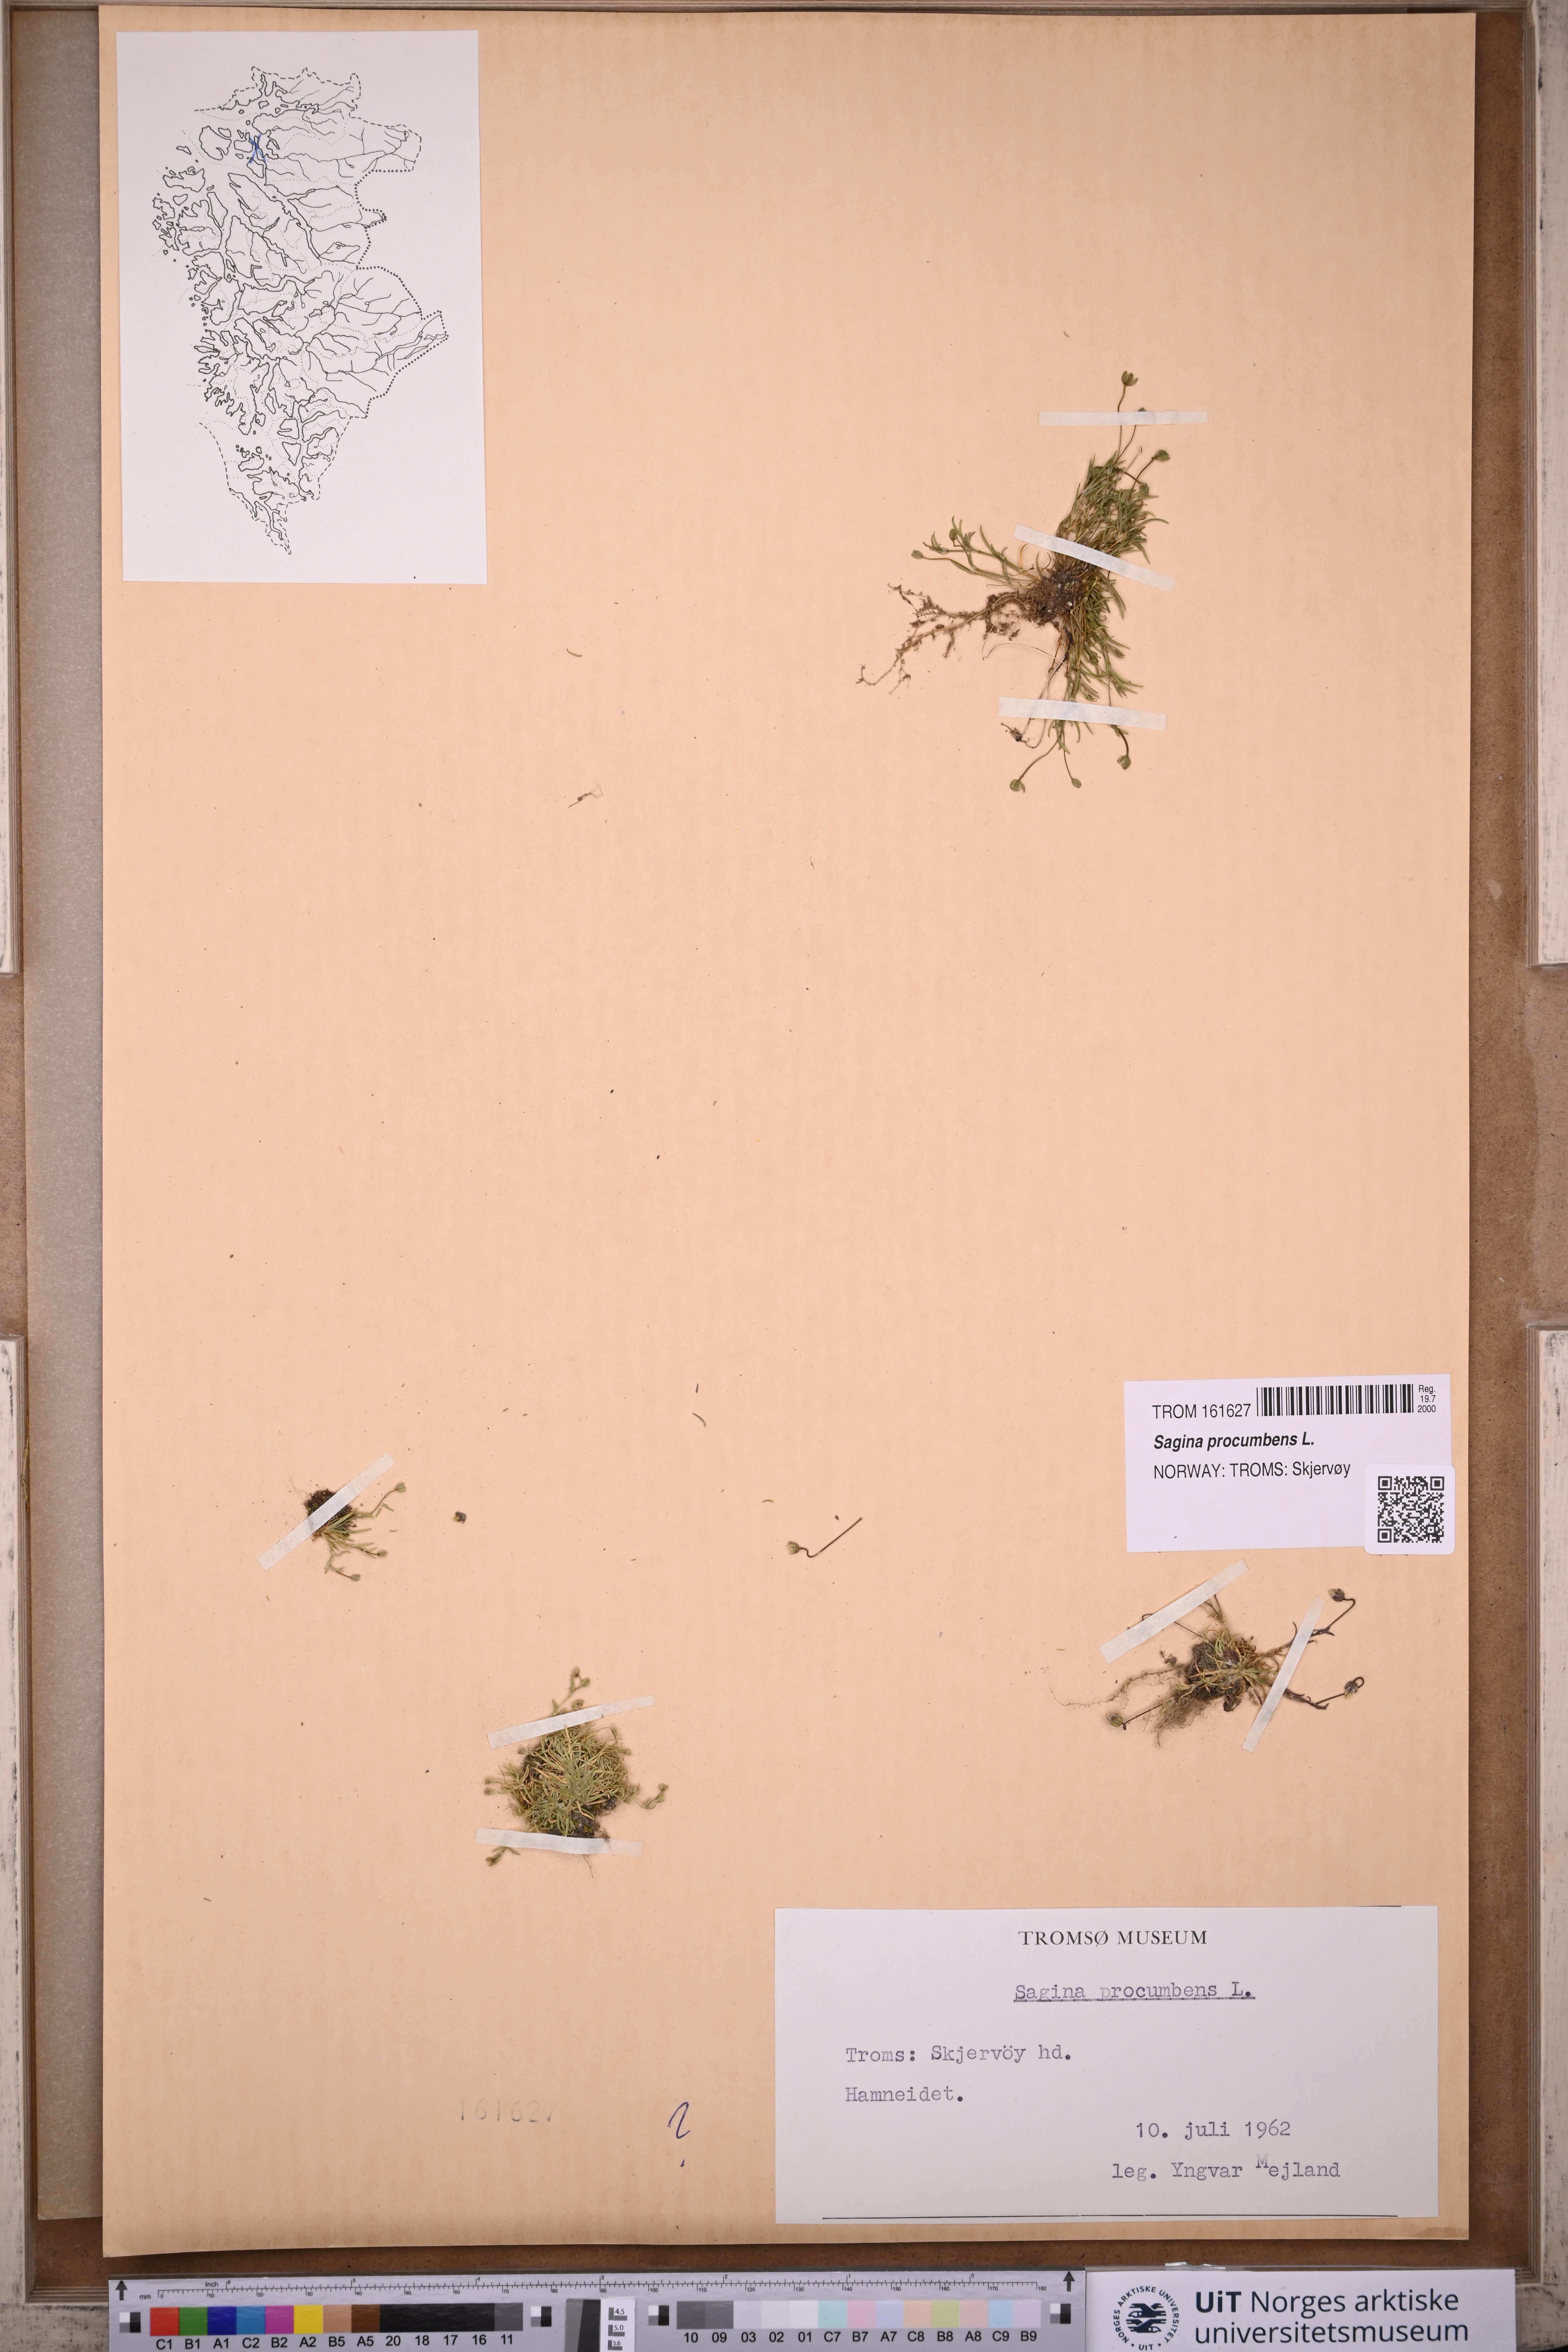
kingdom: Plantae
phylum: Tracheophyta
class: Magnoliopsida
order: Caryophyllales
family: Caryophyllaceae
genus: Sagina
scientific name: Sagina procumbens
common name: Procumbent pearlwort
